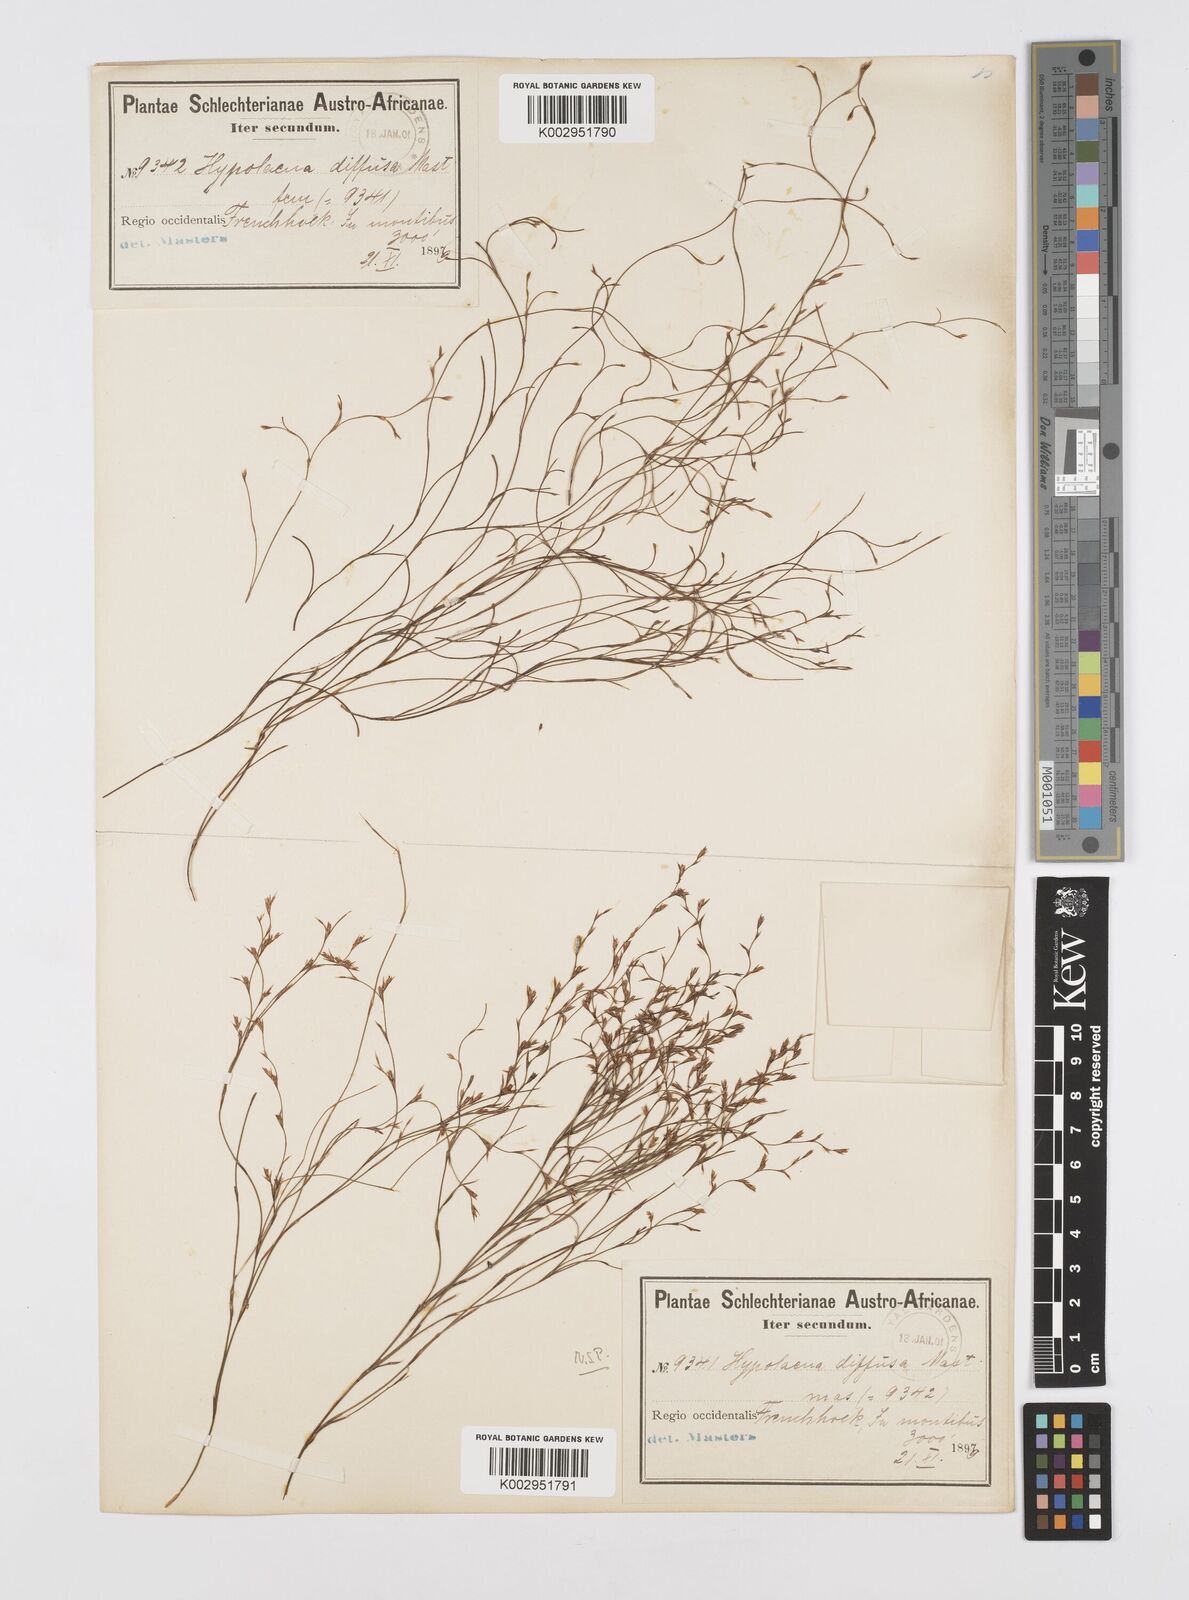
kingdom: Plantae
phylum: Tracheophyta
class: Liliopsida
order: Poales
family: Restionaceae
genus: Restio
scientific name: Restio versatilis
